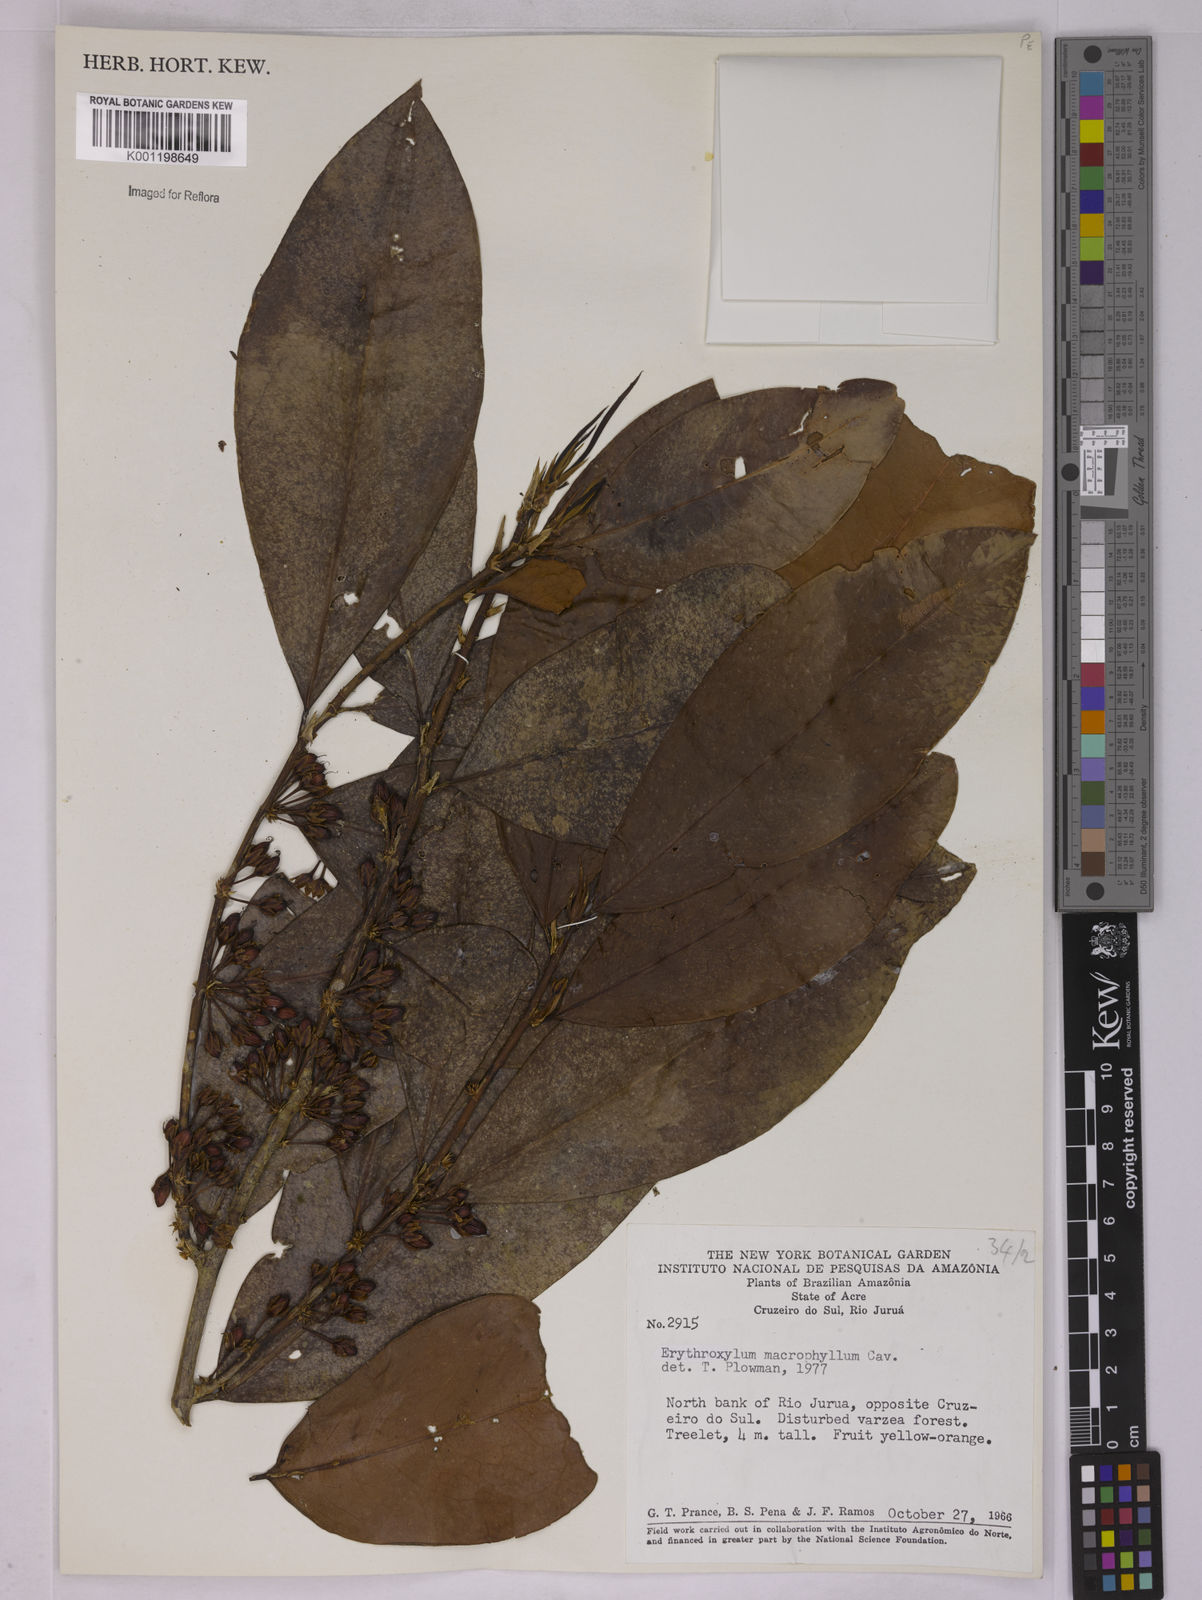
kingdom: Plantae
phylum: Tracheophyta
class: Magnoliopsida
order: Malpighiales
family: Erythroxylaceae
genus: Erythroxylum
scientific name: Erythroxylum macrophyllum
